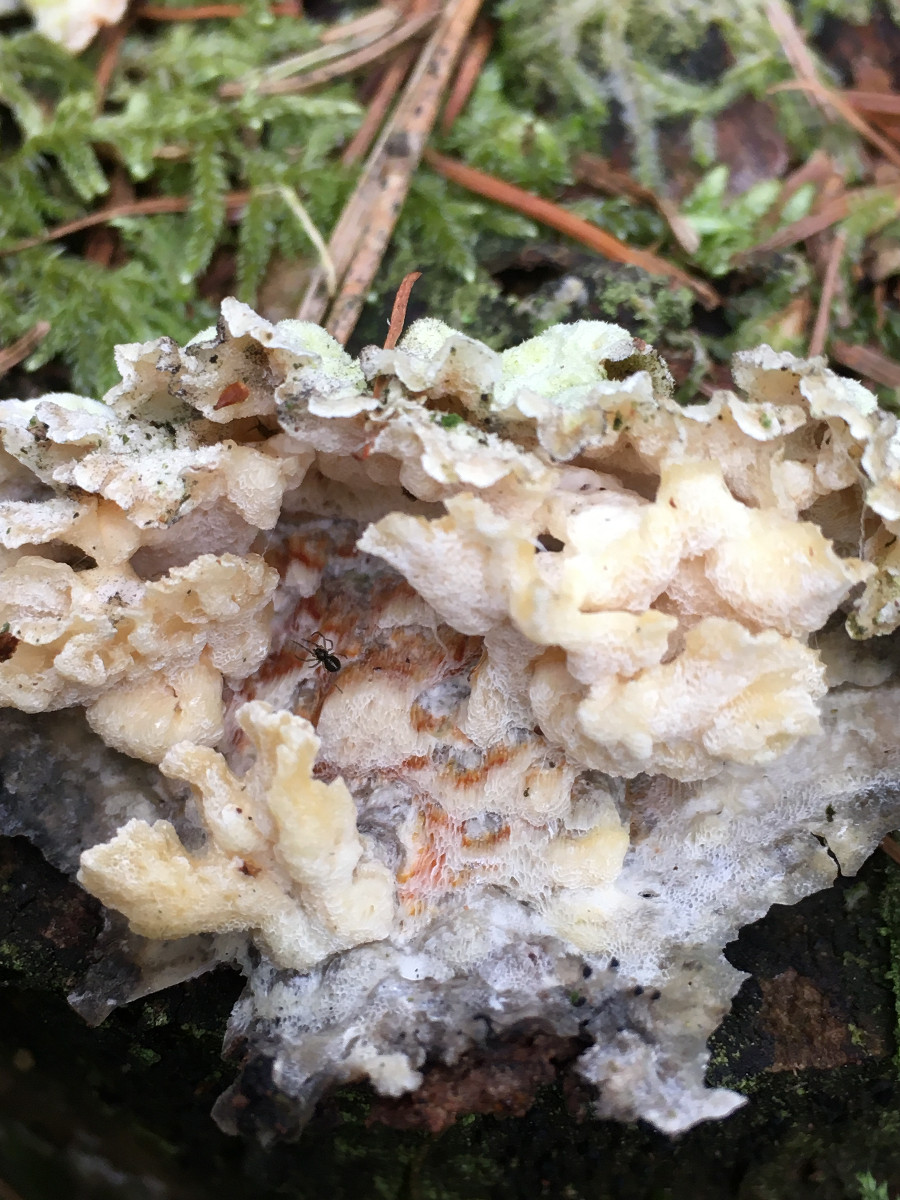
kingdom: Fungi
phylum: Basidiomycota
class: Agaricomycetes
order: Polyporales
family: Incrustoporiaceae
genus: Skeletocutis
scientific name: Skeletocutis amorpha
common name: orange krystalporesvamp
